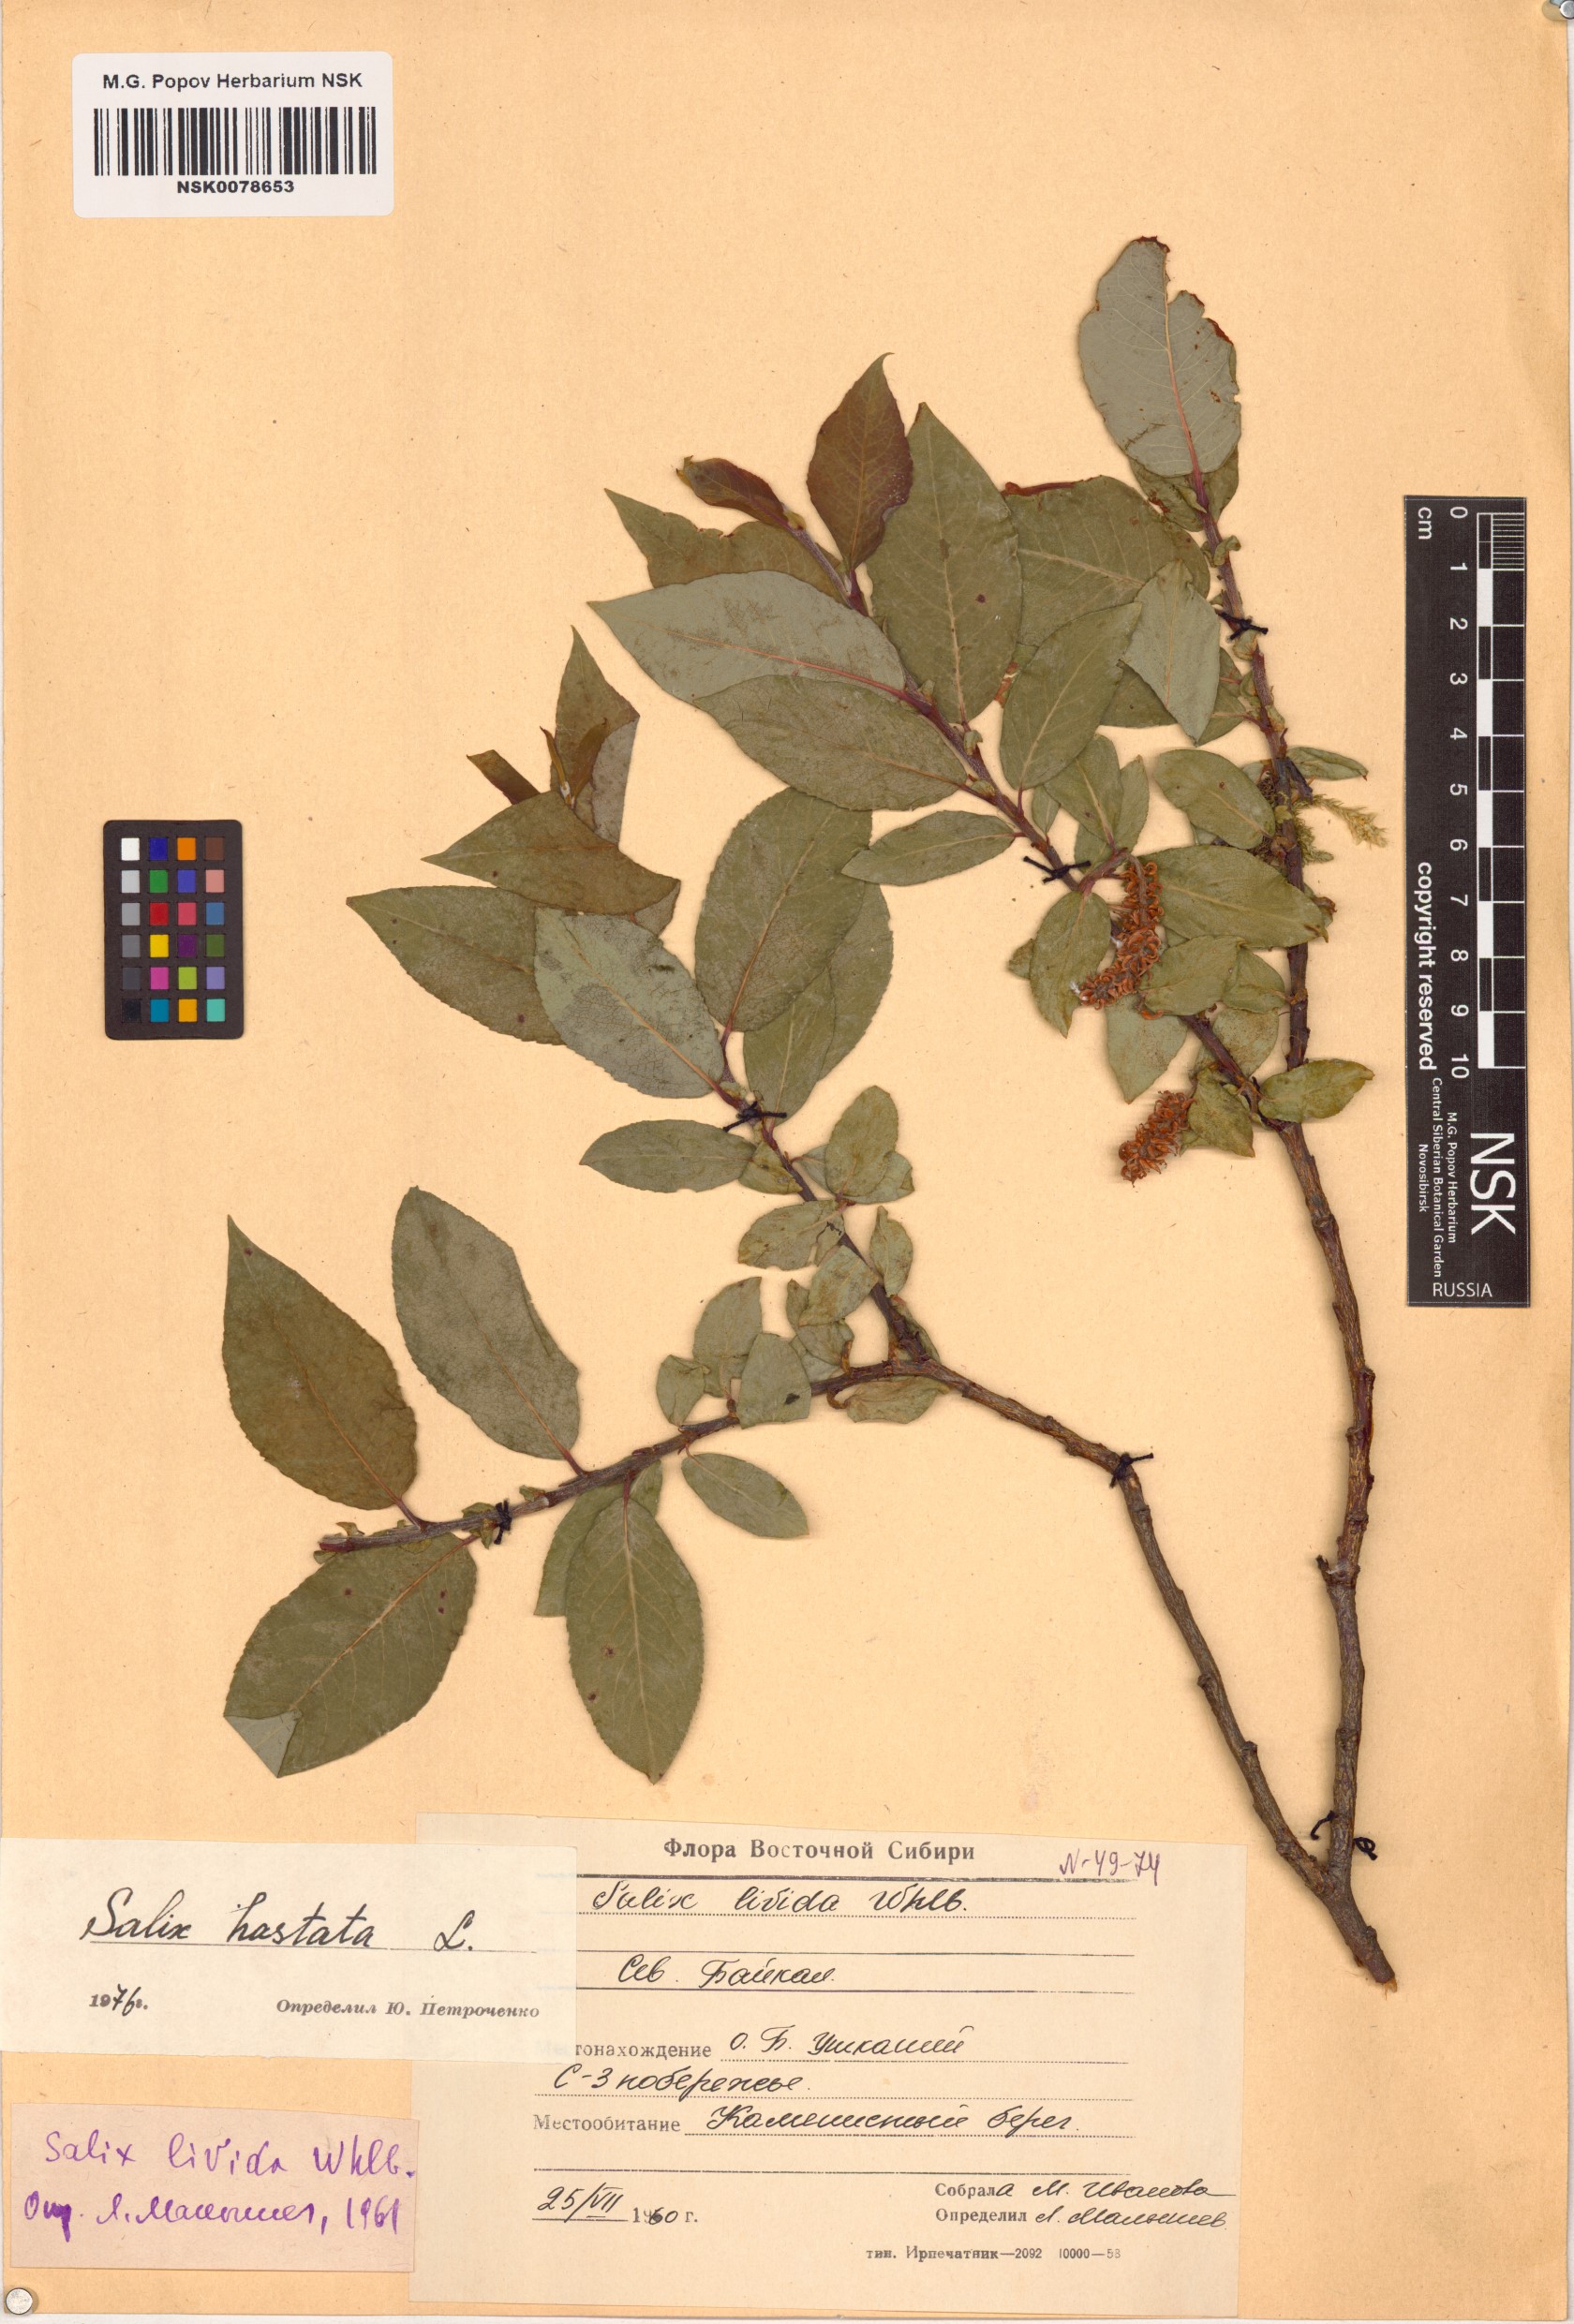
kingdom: Plantae
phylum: Tracheophyta
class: Magnoliopsida
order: Malpighiales
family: Salicaceae
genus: Salix
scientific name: Salix hastata
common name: Halberd willow
